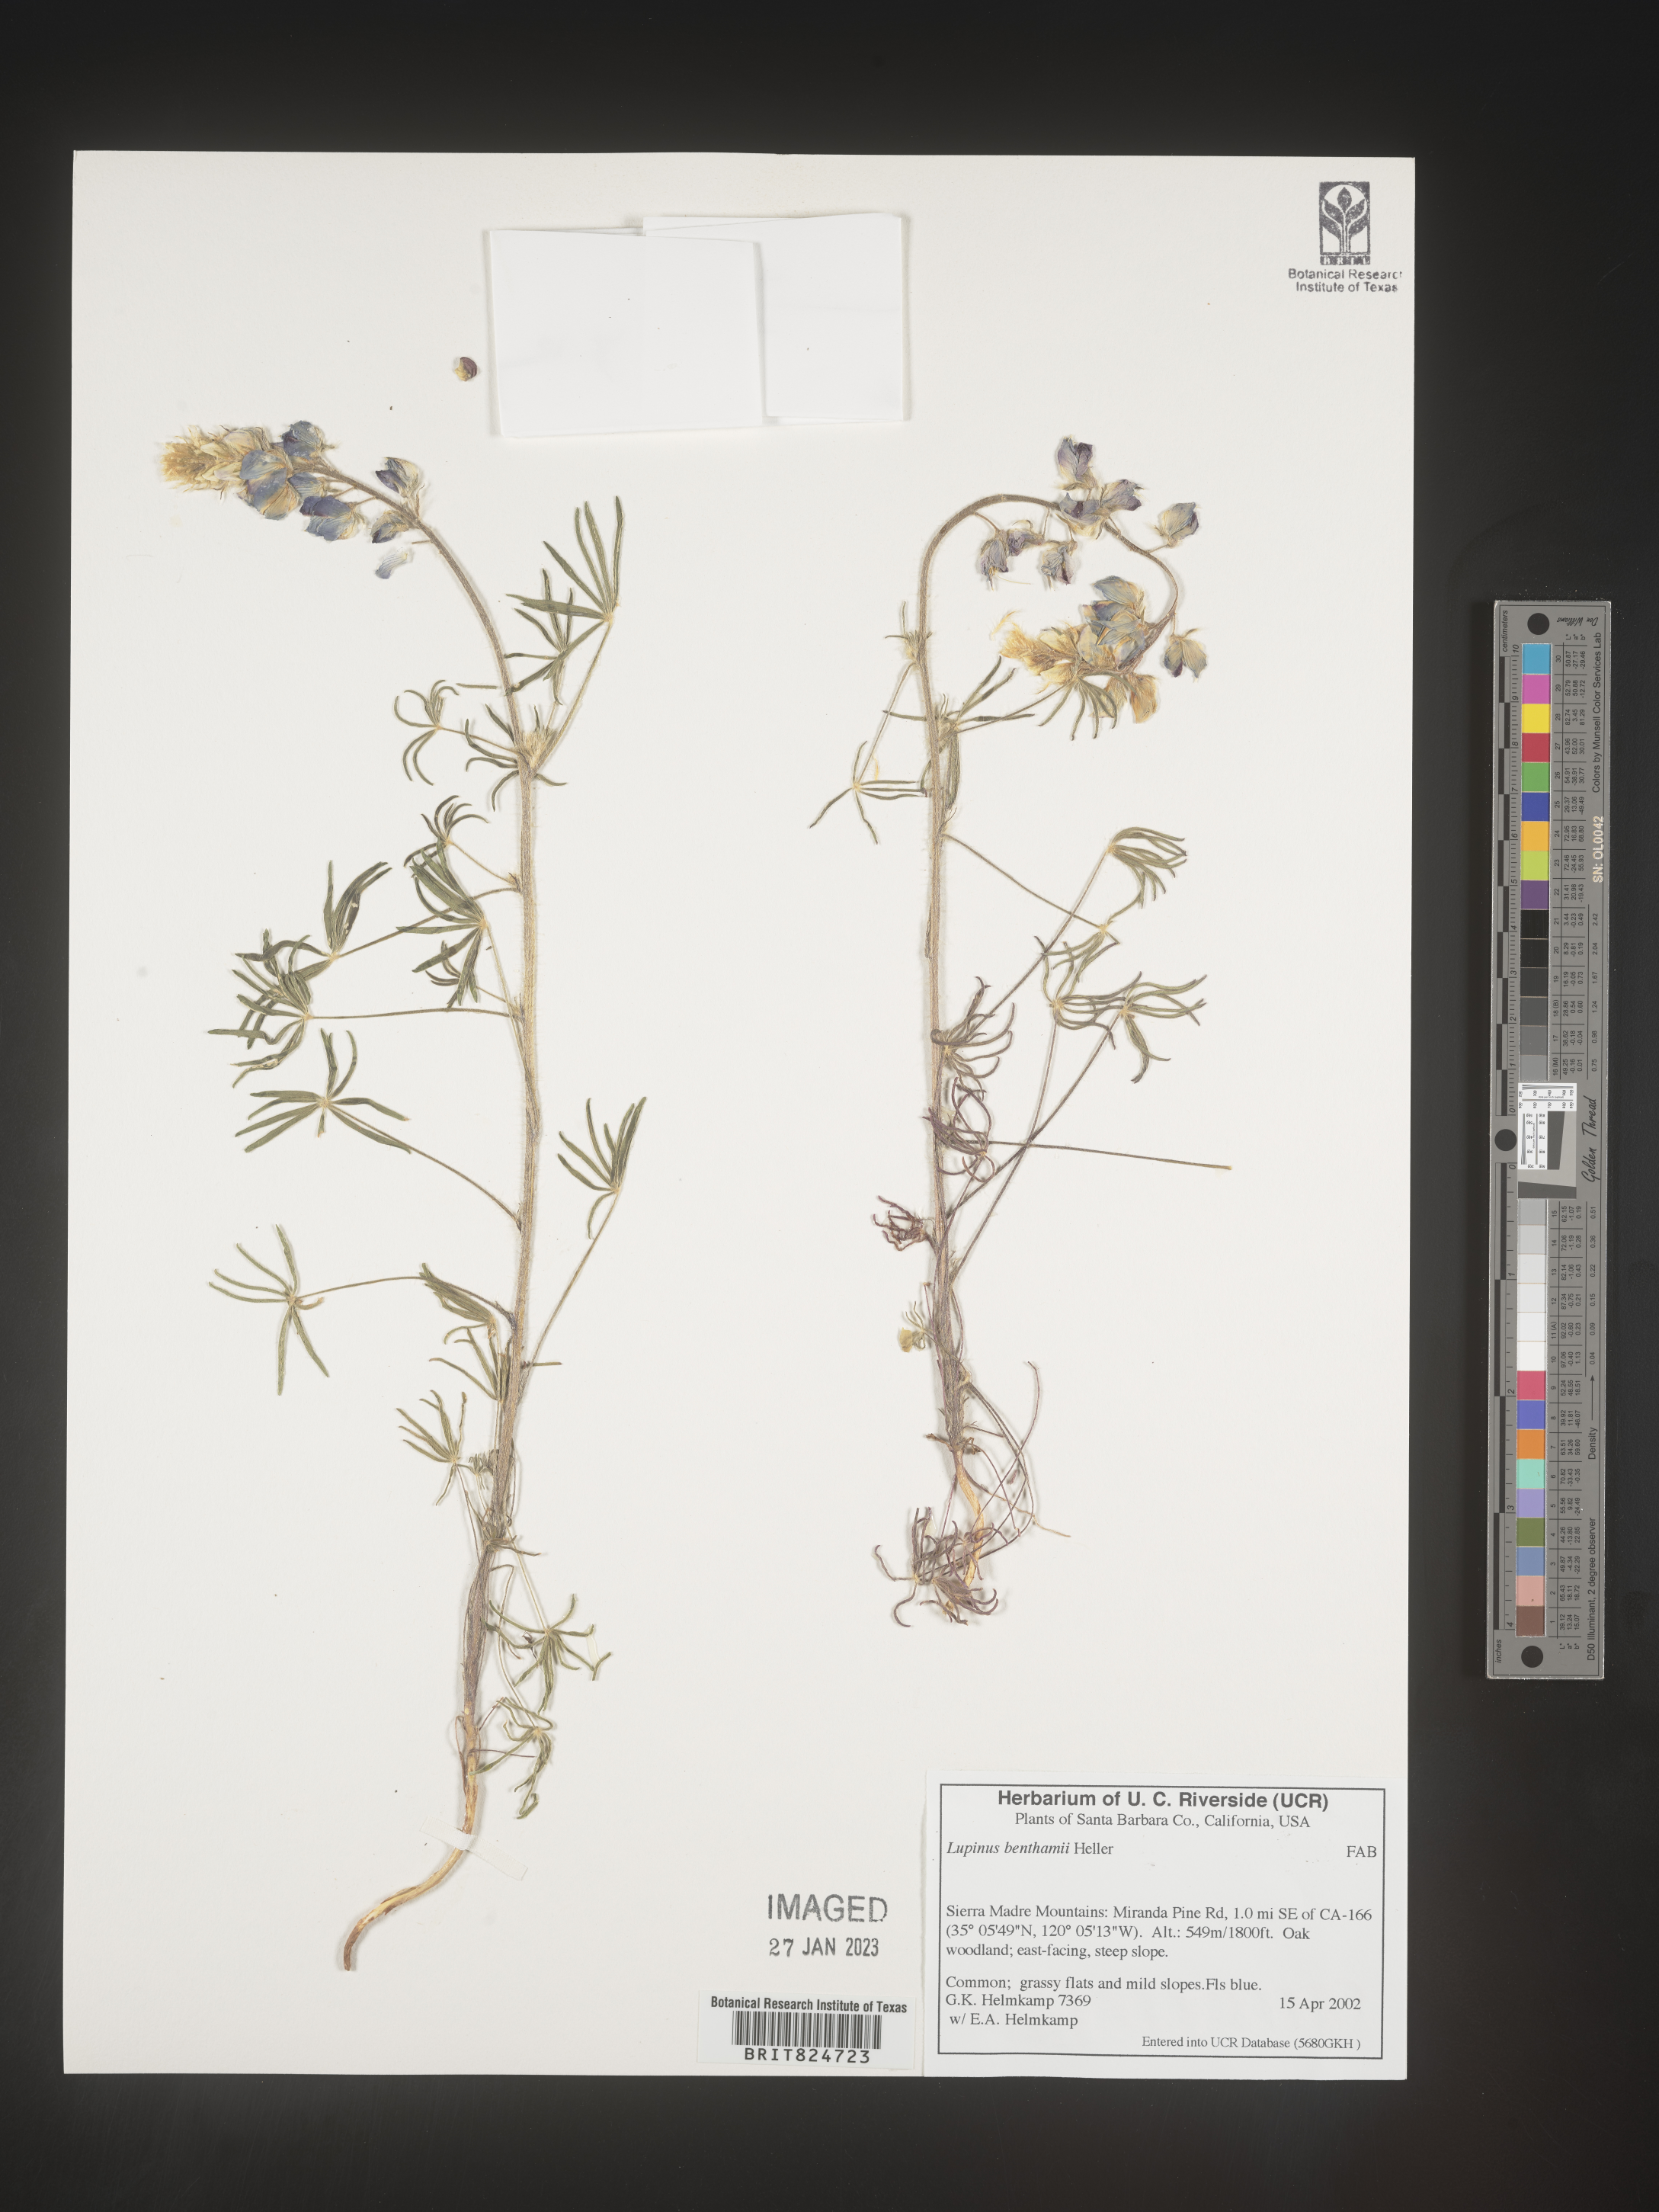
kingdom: Plantae
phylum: Tracheophyta
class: Magnoliopsida
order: Fabales
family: Fabaceae
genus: Lupinus
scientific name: Lupinus
